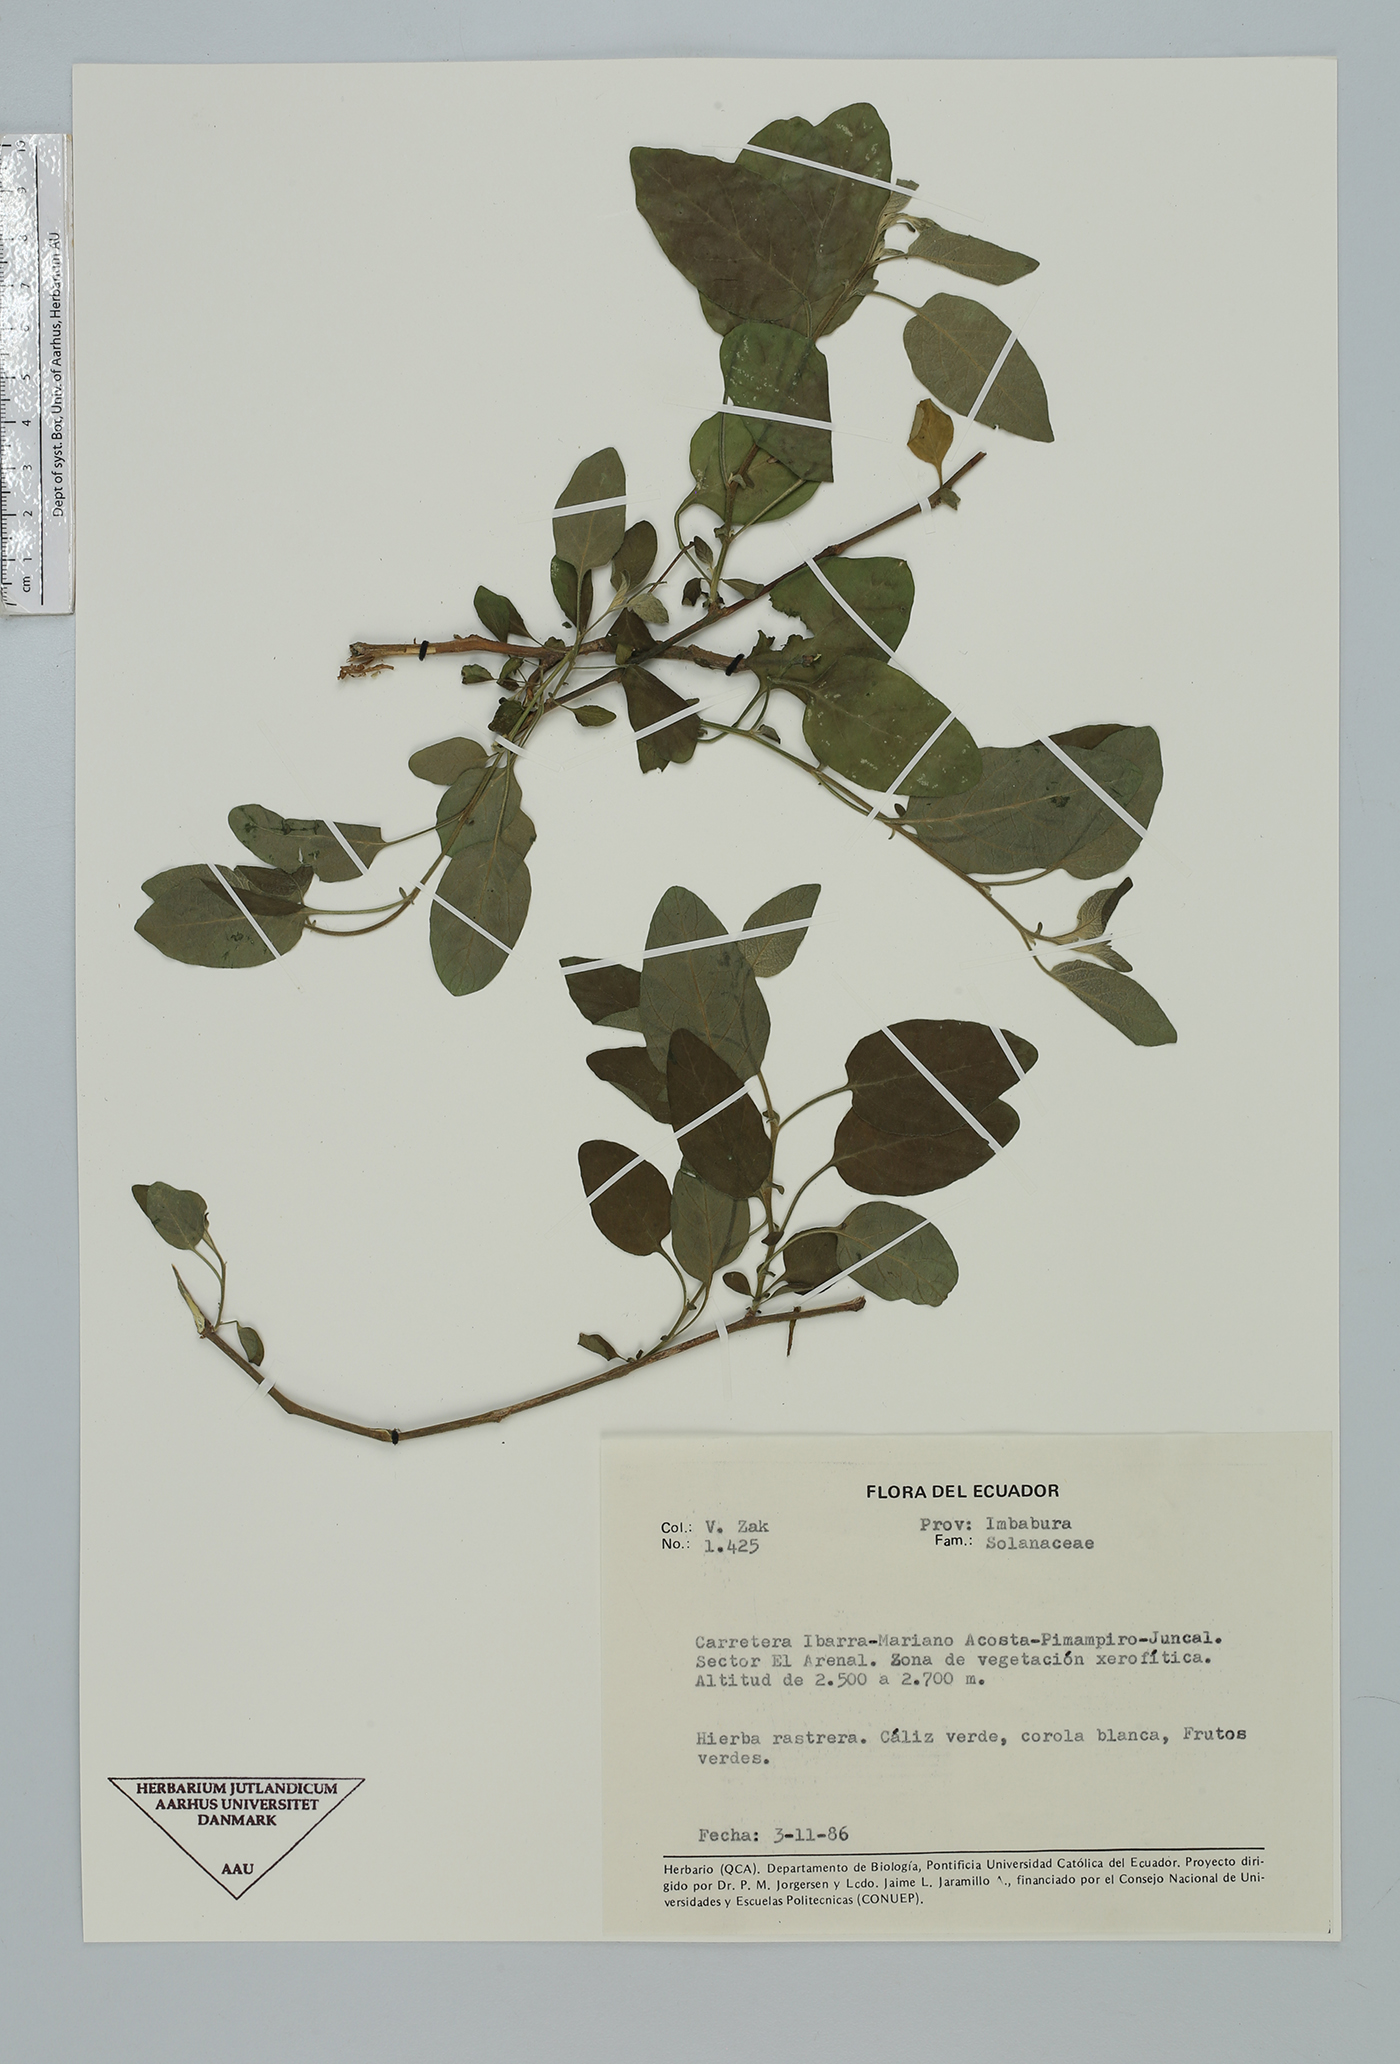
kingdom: Plantae
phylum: Tracheophyta
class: Magnoliopsida
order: Solanales
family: Solanaceae
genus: Solanum
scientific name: Solanum
